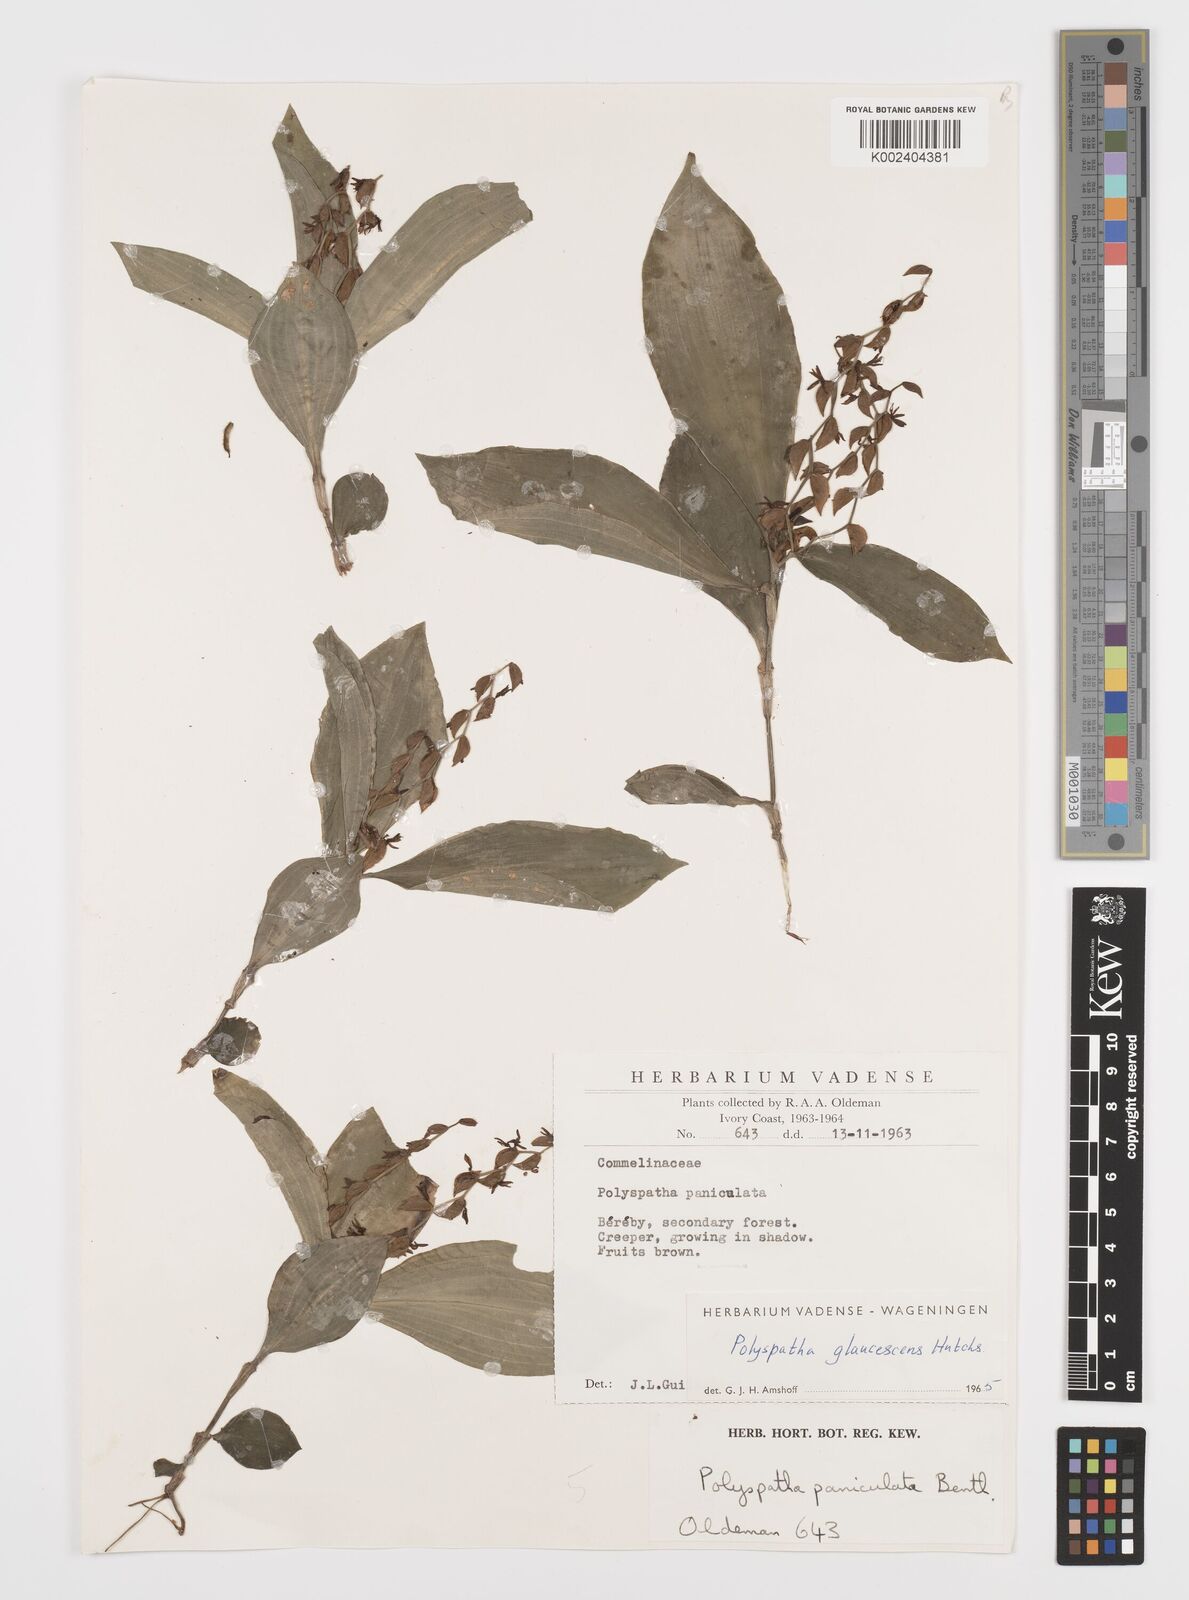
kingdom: Plantae
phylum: Tracheophyta
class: Liliopsida
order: Commelinales
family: Commelinaceae
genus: Polyspatha
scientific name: Polyspatha paniculata
